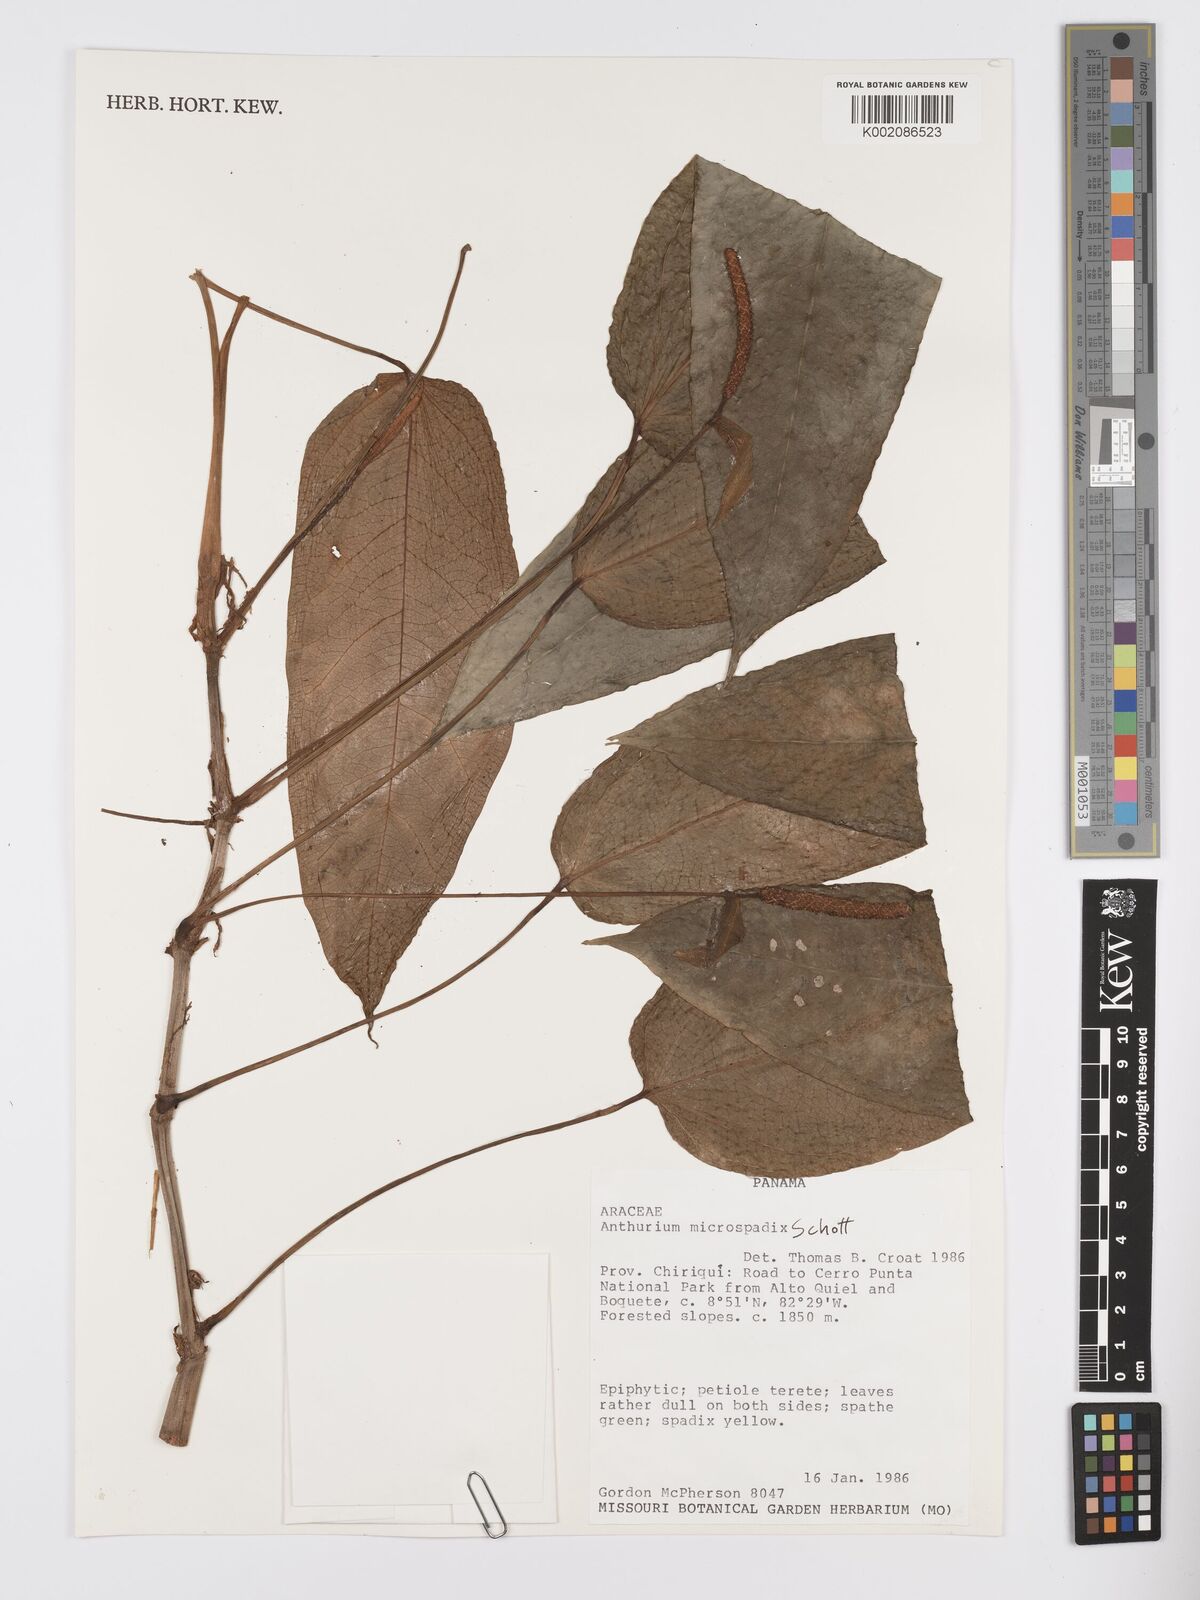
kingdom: Plantae
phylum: Tracheophyta
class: Liliopsida
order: Alismatales
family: Araceae
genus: Anthurium
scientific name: Anthurium microspadix
